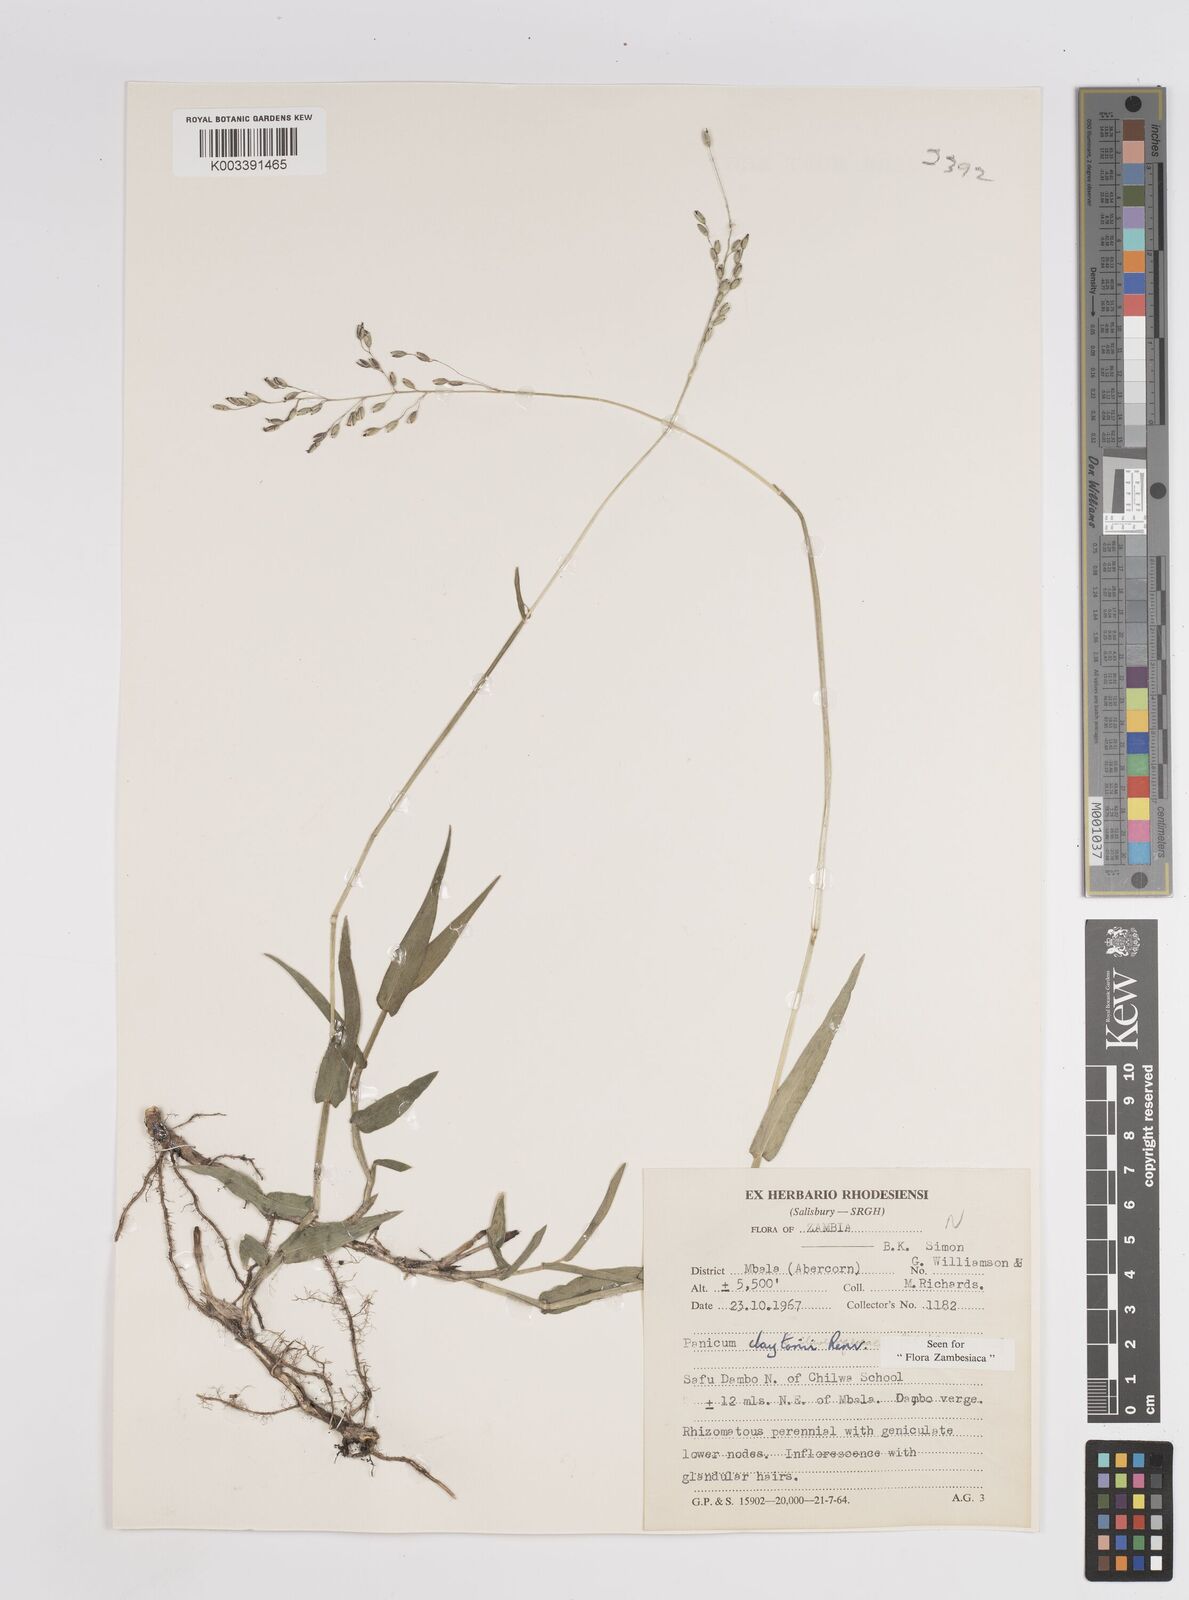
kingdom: Plantae
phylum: Tracheophyta
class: Liliopsida
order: Poales
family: Poaceae
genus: Adenochloa
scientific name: Adenochloa claytonii
